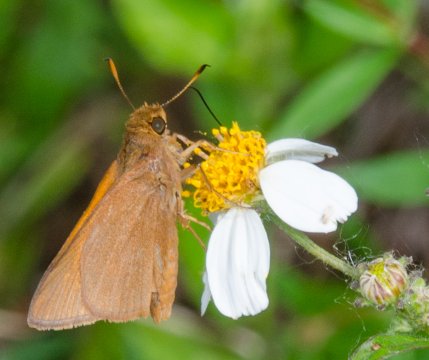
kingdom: Animalia
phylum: Arthropoda
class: Insecta
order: Lepidoptera
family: Hesperiidae
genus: Euphyes
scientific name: Euphyes pilatka
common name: Palatka Skipper
